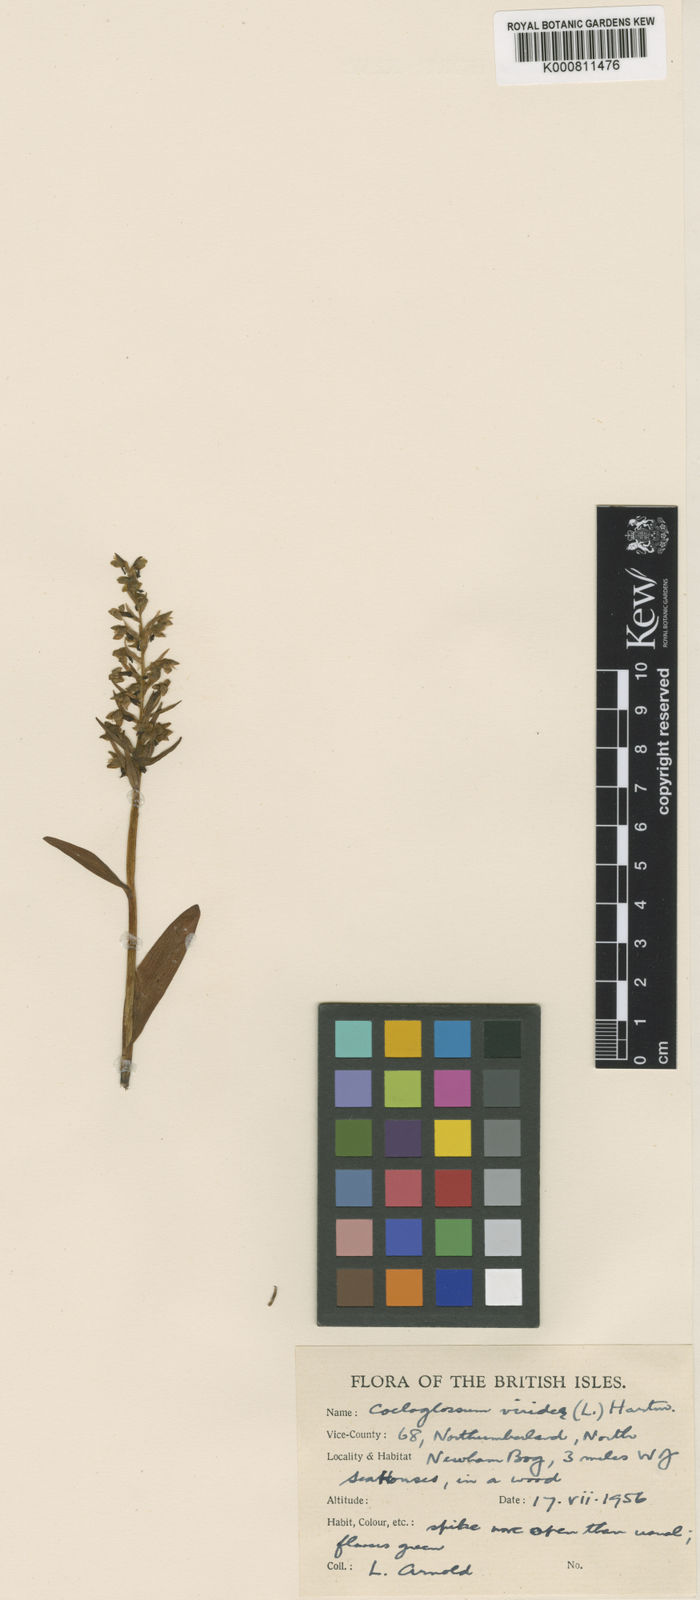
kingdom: Plantae
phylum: Tracheophyta
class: Liliopsida
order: Asparagales
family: Orchidaceae
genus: Dactylorhiza
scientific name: Dactylorhiza viridis
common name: Longbract frog orchid
